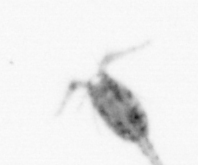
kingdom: Animalia
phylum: Arthropoda
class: Copepoda
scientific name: Copepoda
